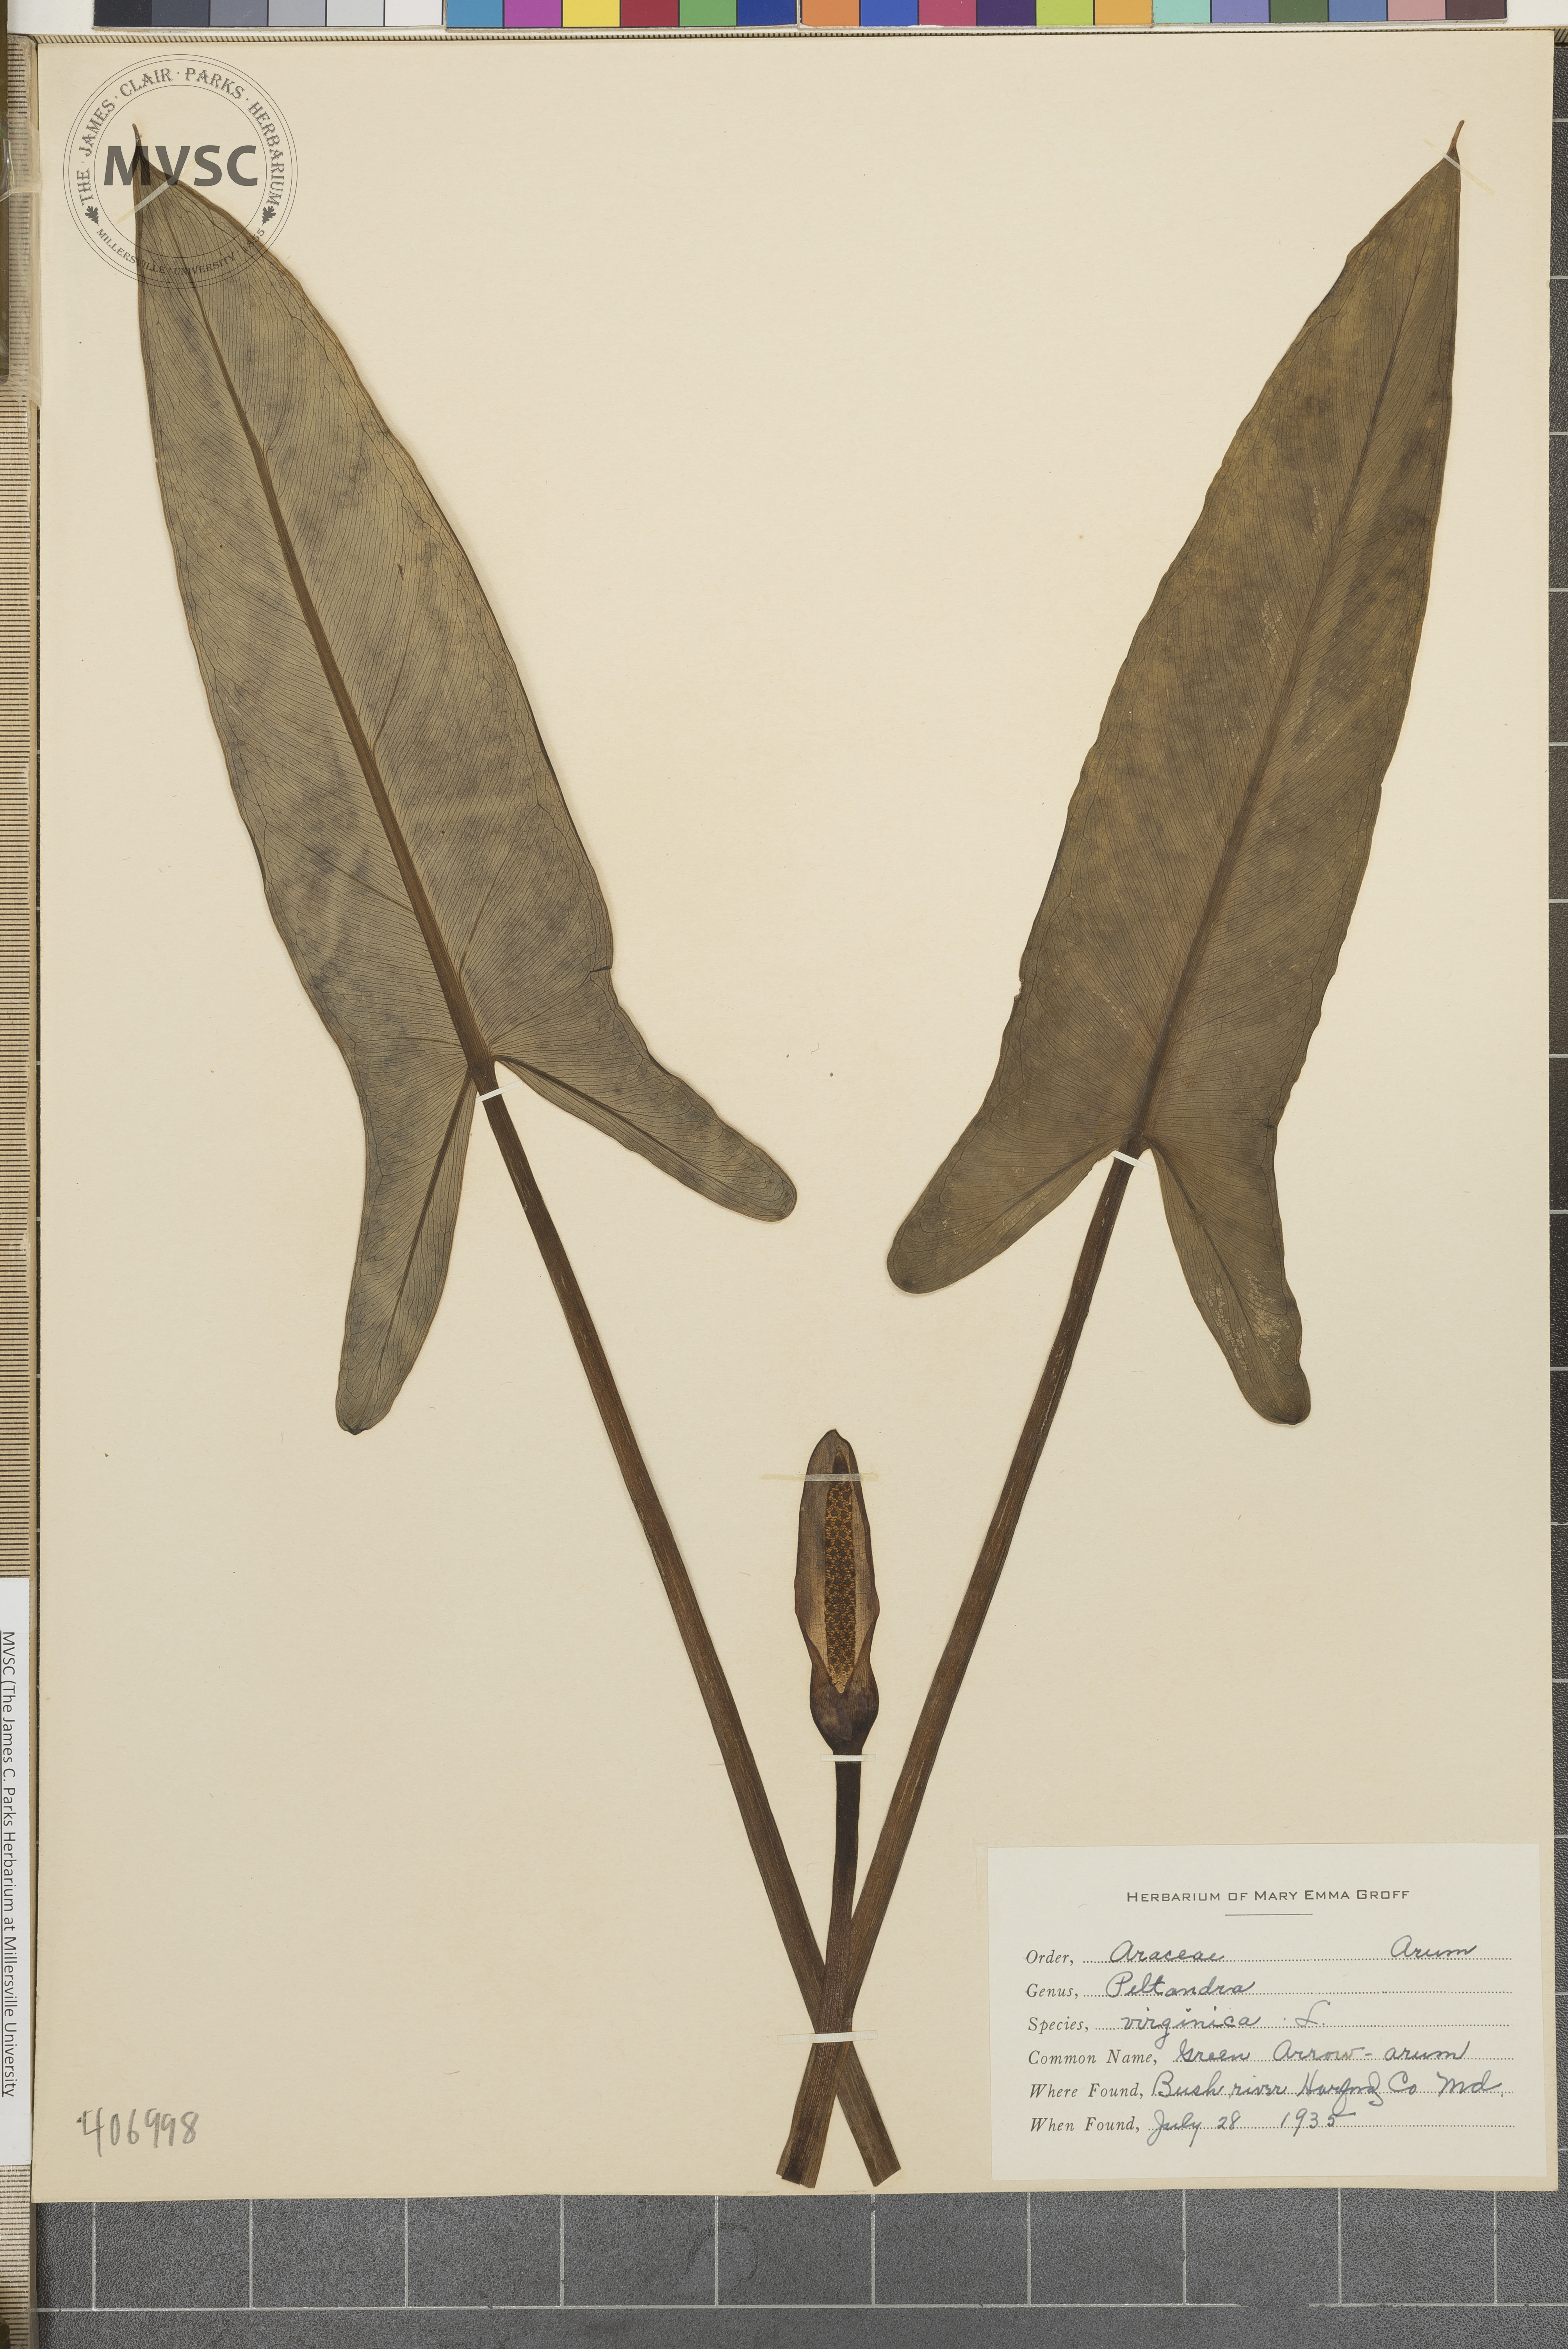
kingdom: Plantae
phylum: Tracheophyta
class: Liliopsida
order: Alismatales
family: Araceae
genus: Peltandra
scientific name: Peltandra virginica
